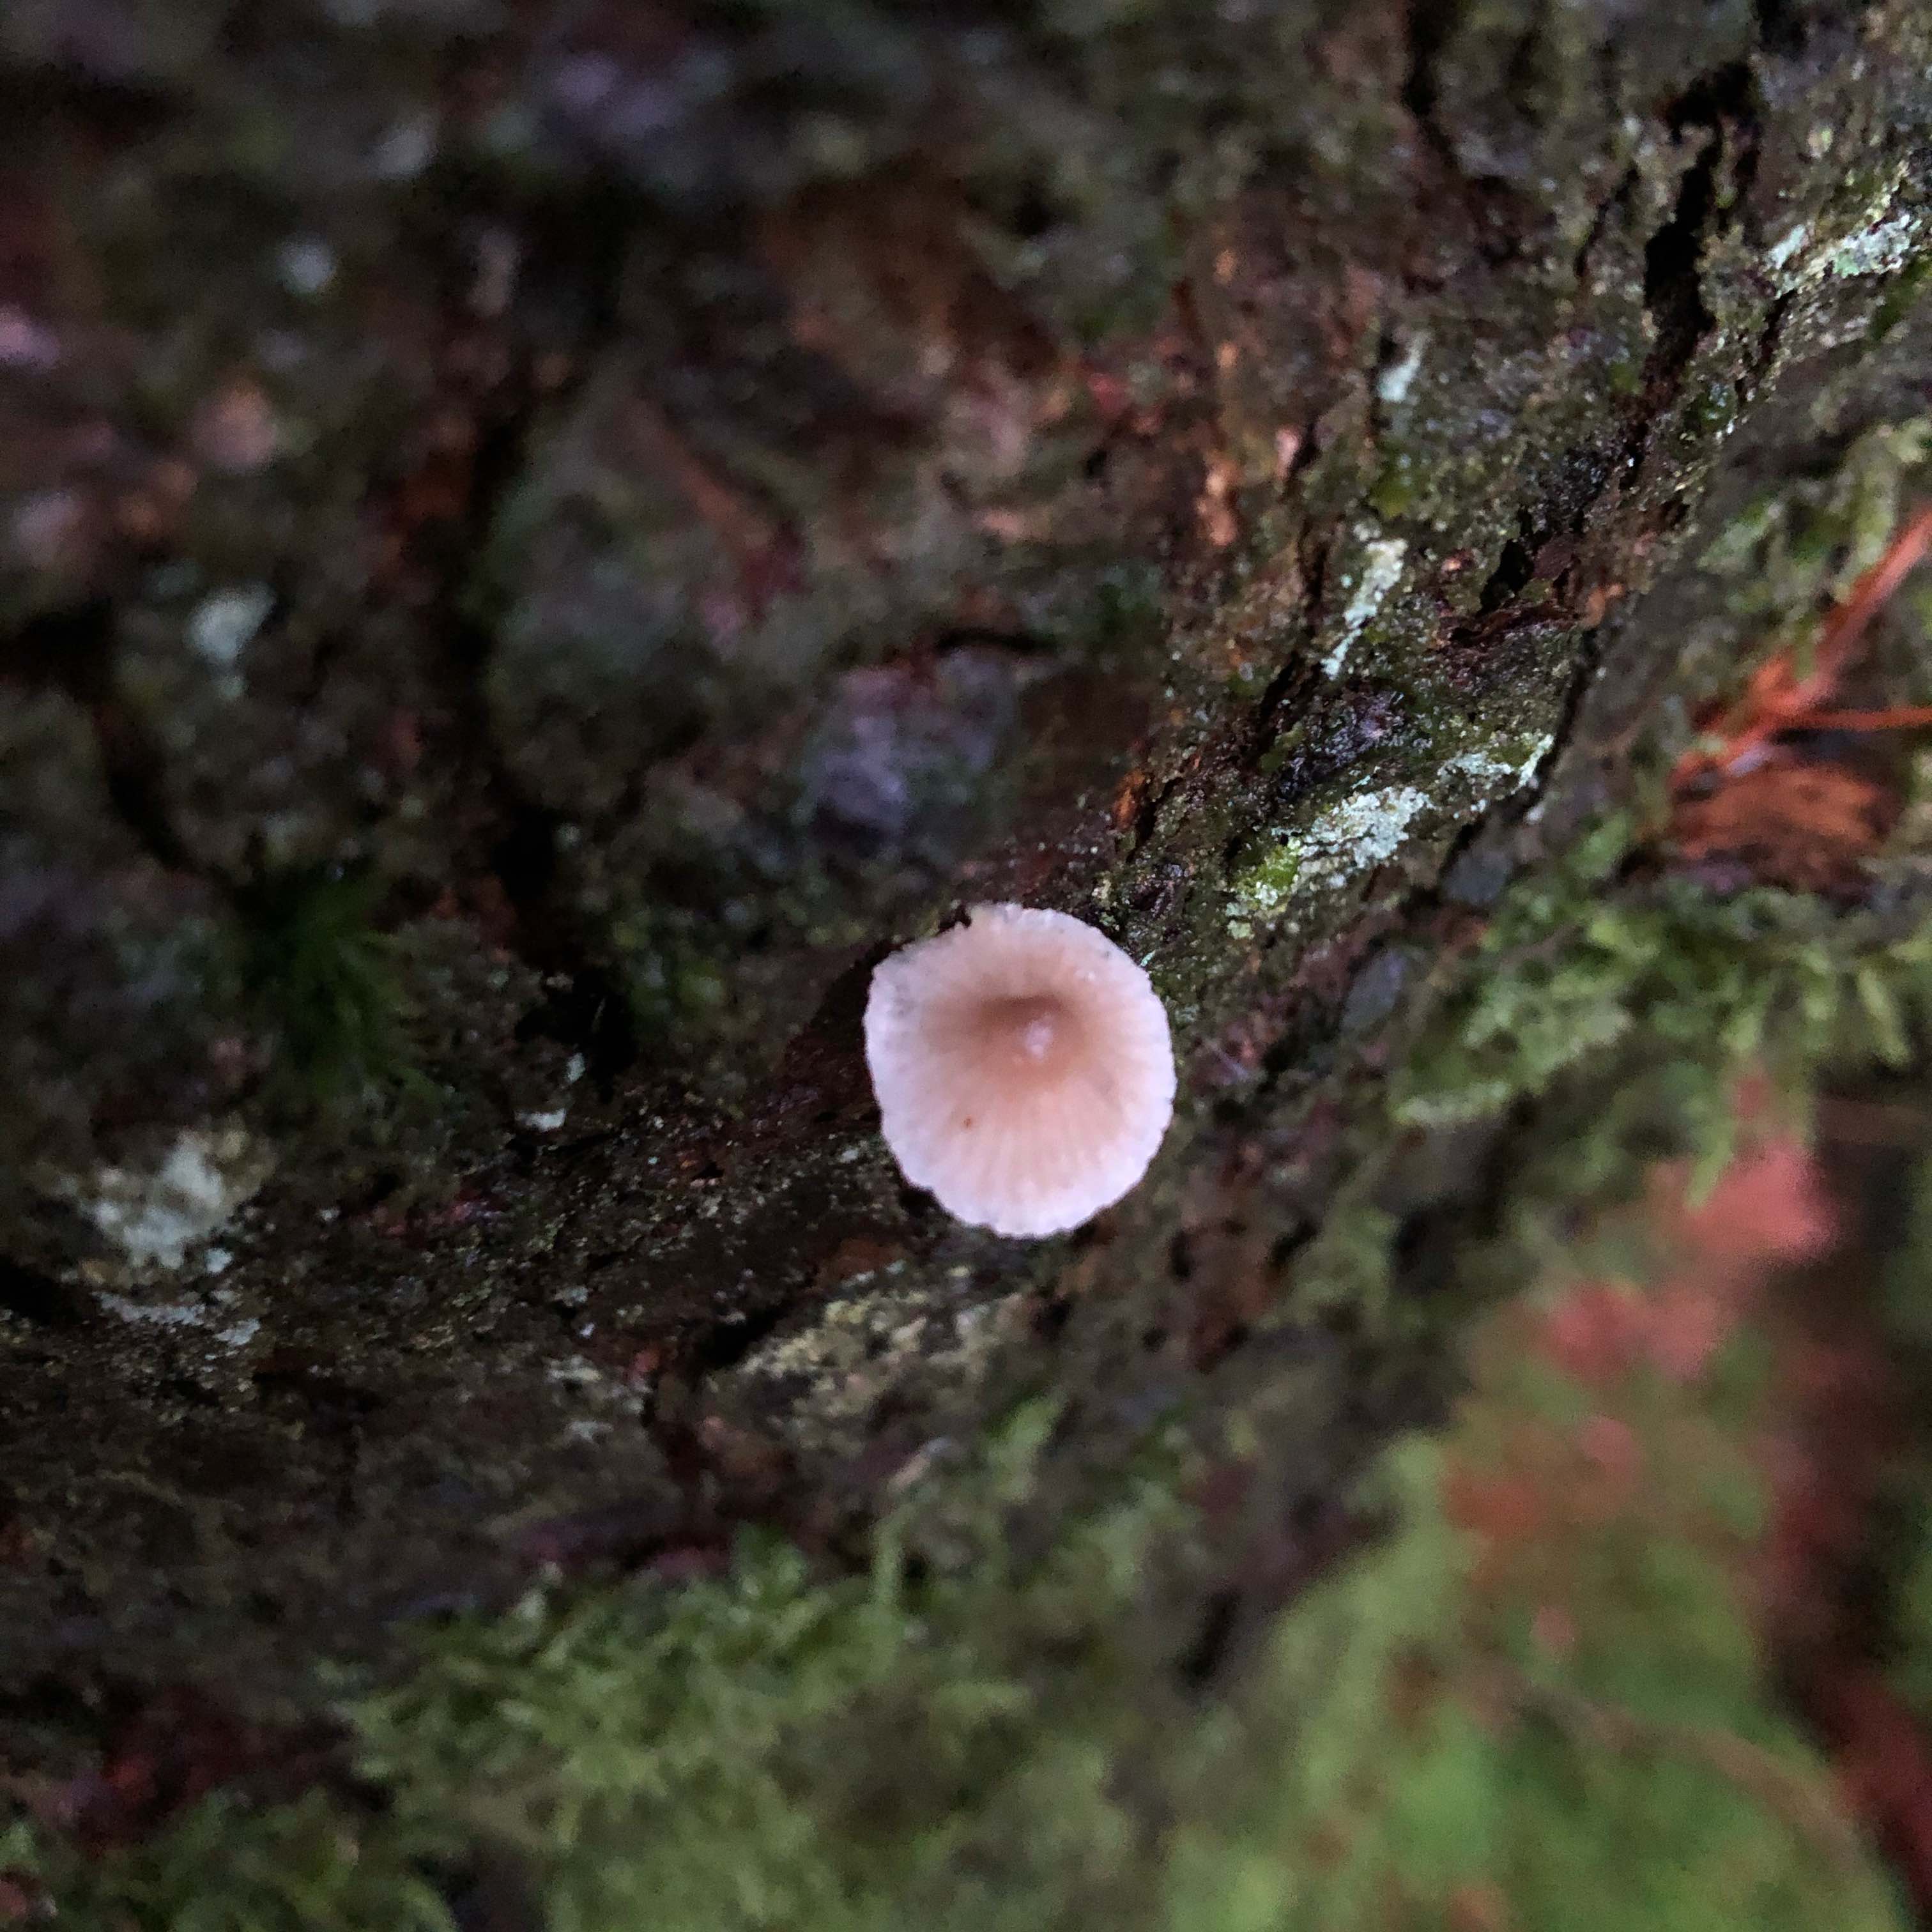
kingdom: Fungi
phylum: Basidiomycota
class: Agaricomycetes
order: Agaricales
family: Mycenaceae
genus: Mycena
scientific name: Mycena metata
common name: rødlig huesvamp
